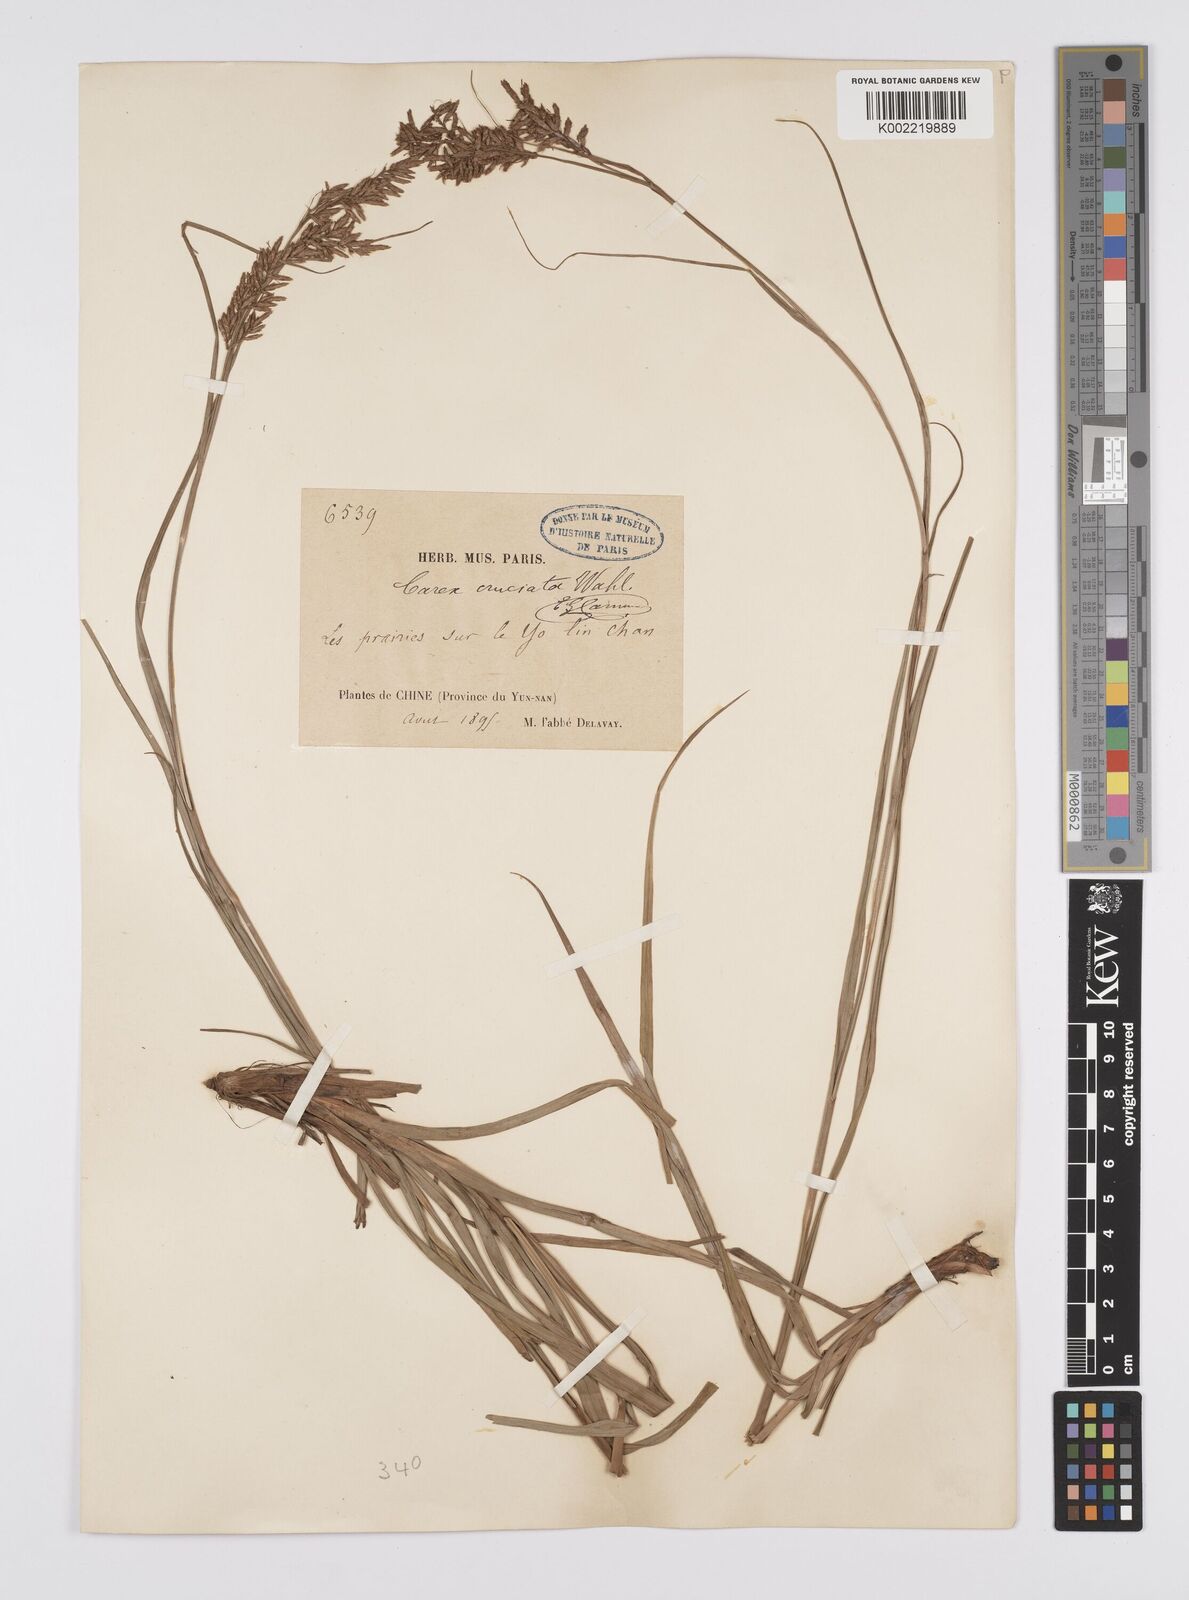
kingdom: Plantae
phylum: Tracheophyta
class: Liliopsida
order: Poales
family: Cyperaceae
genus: Carex
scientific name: Carex cruciata
